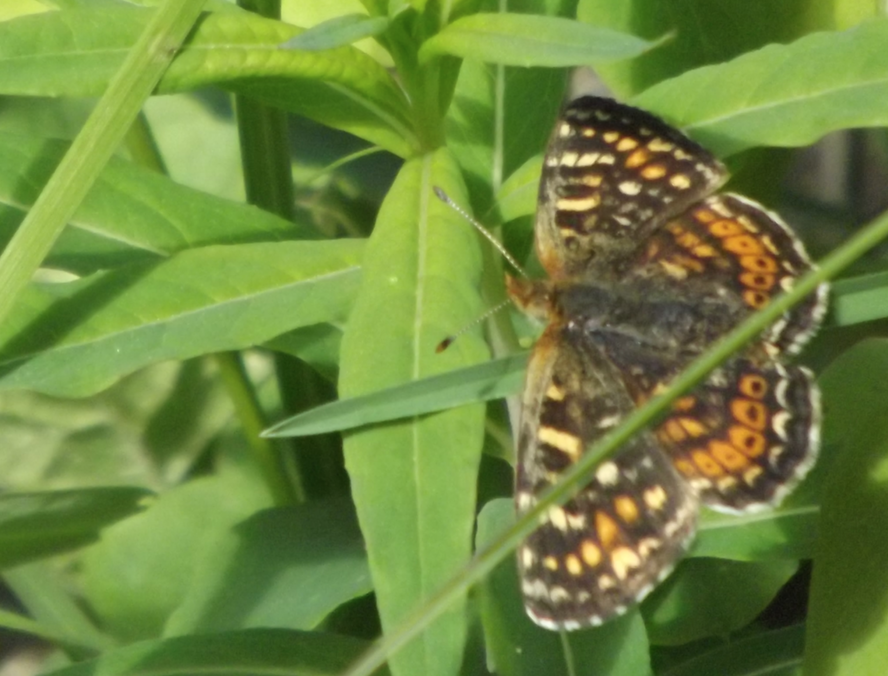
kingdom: Animalia
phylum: Arthropoda
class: Insecta
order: Lepidoptera
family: Nymphalidae
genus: Phyciodes
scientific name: Phyciodes tharos
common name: Field Crescent
